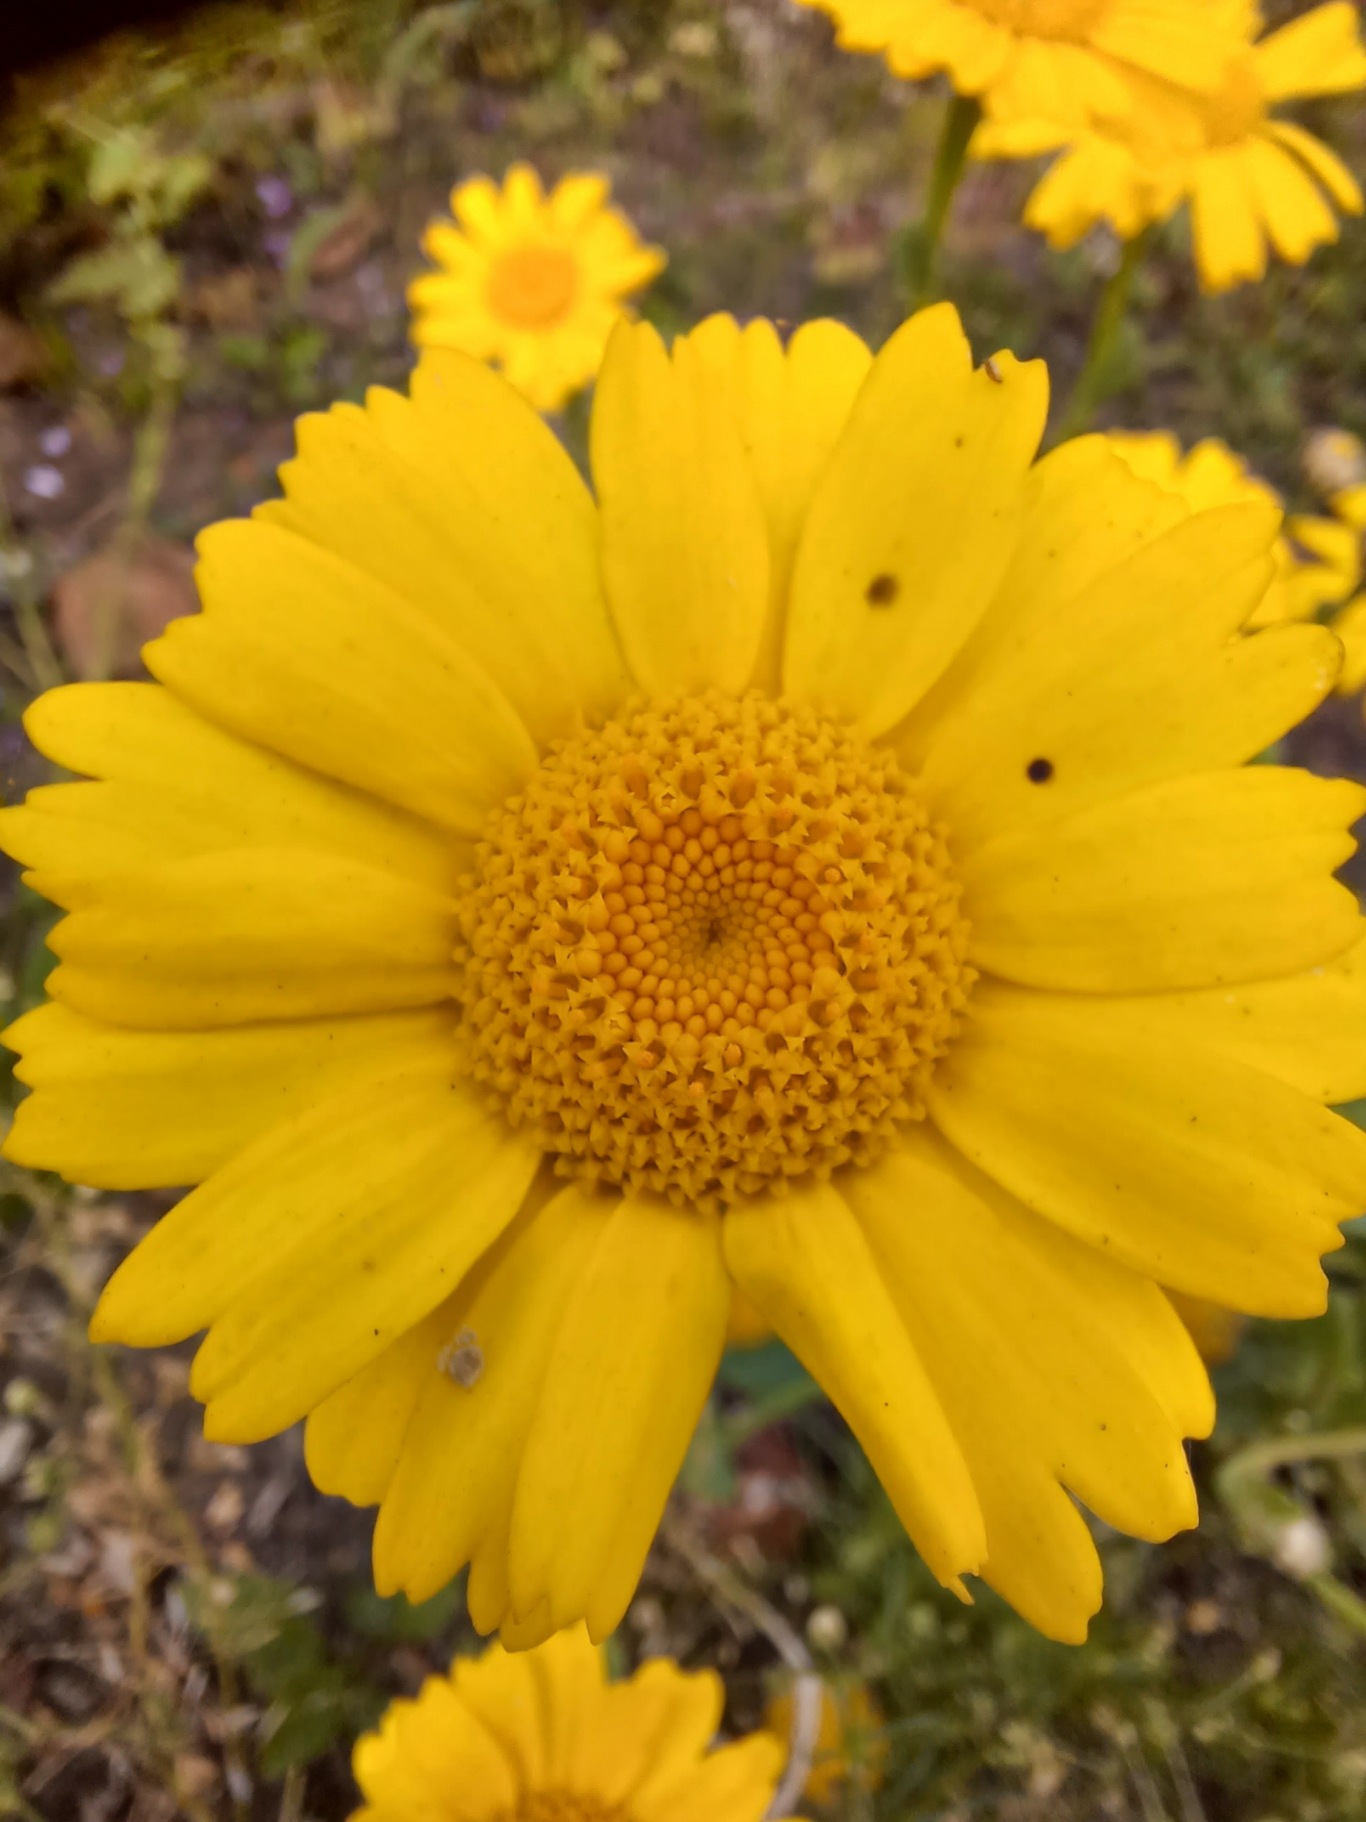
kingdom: Plantae
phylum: Tracheophyta
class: Magnoliopsida
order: Asterales
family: Asteraceae
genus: Glebionis
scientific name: Glebionis segetum
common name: Gul okseøje
